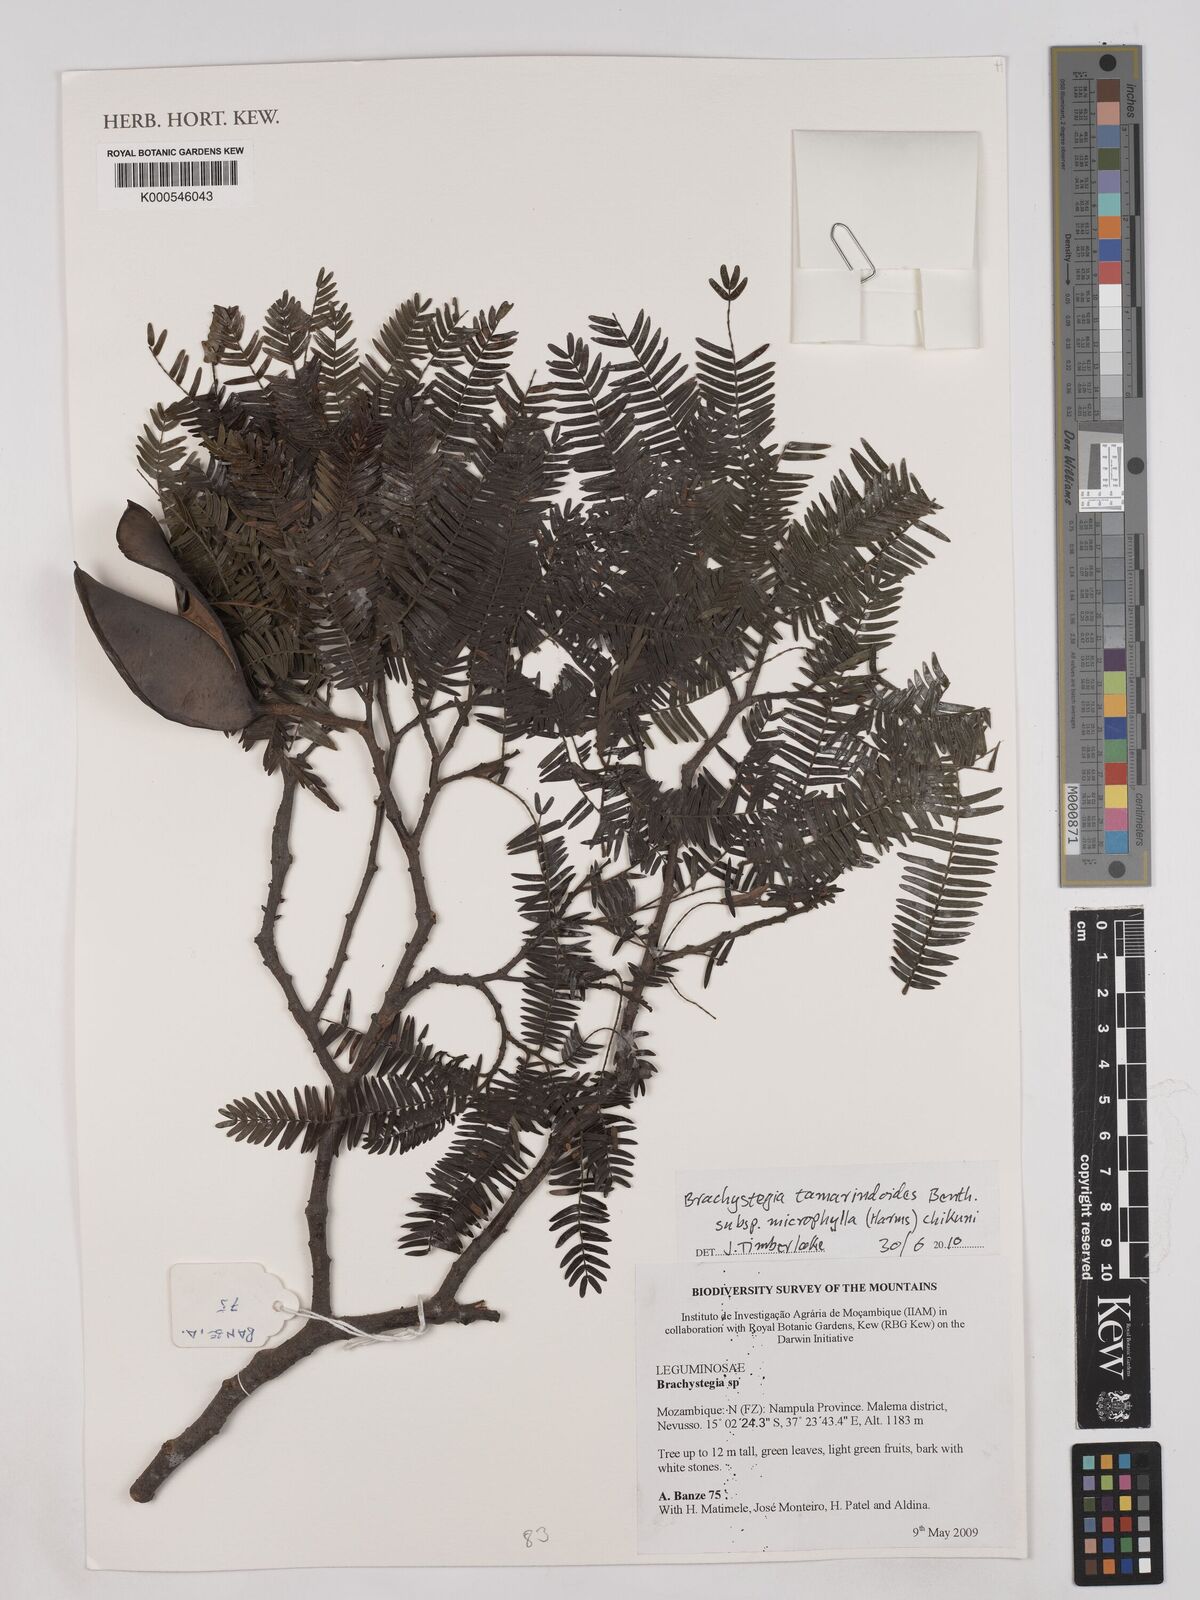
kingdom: Plantae
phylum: Tracheophyta
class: Magnoliopsida
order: Fabales
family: Fabaceae
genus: Brachystegia
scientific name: Brachystegia tamarindoides
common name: Mountain acacia
